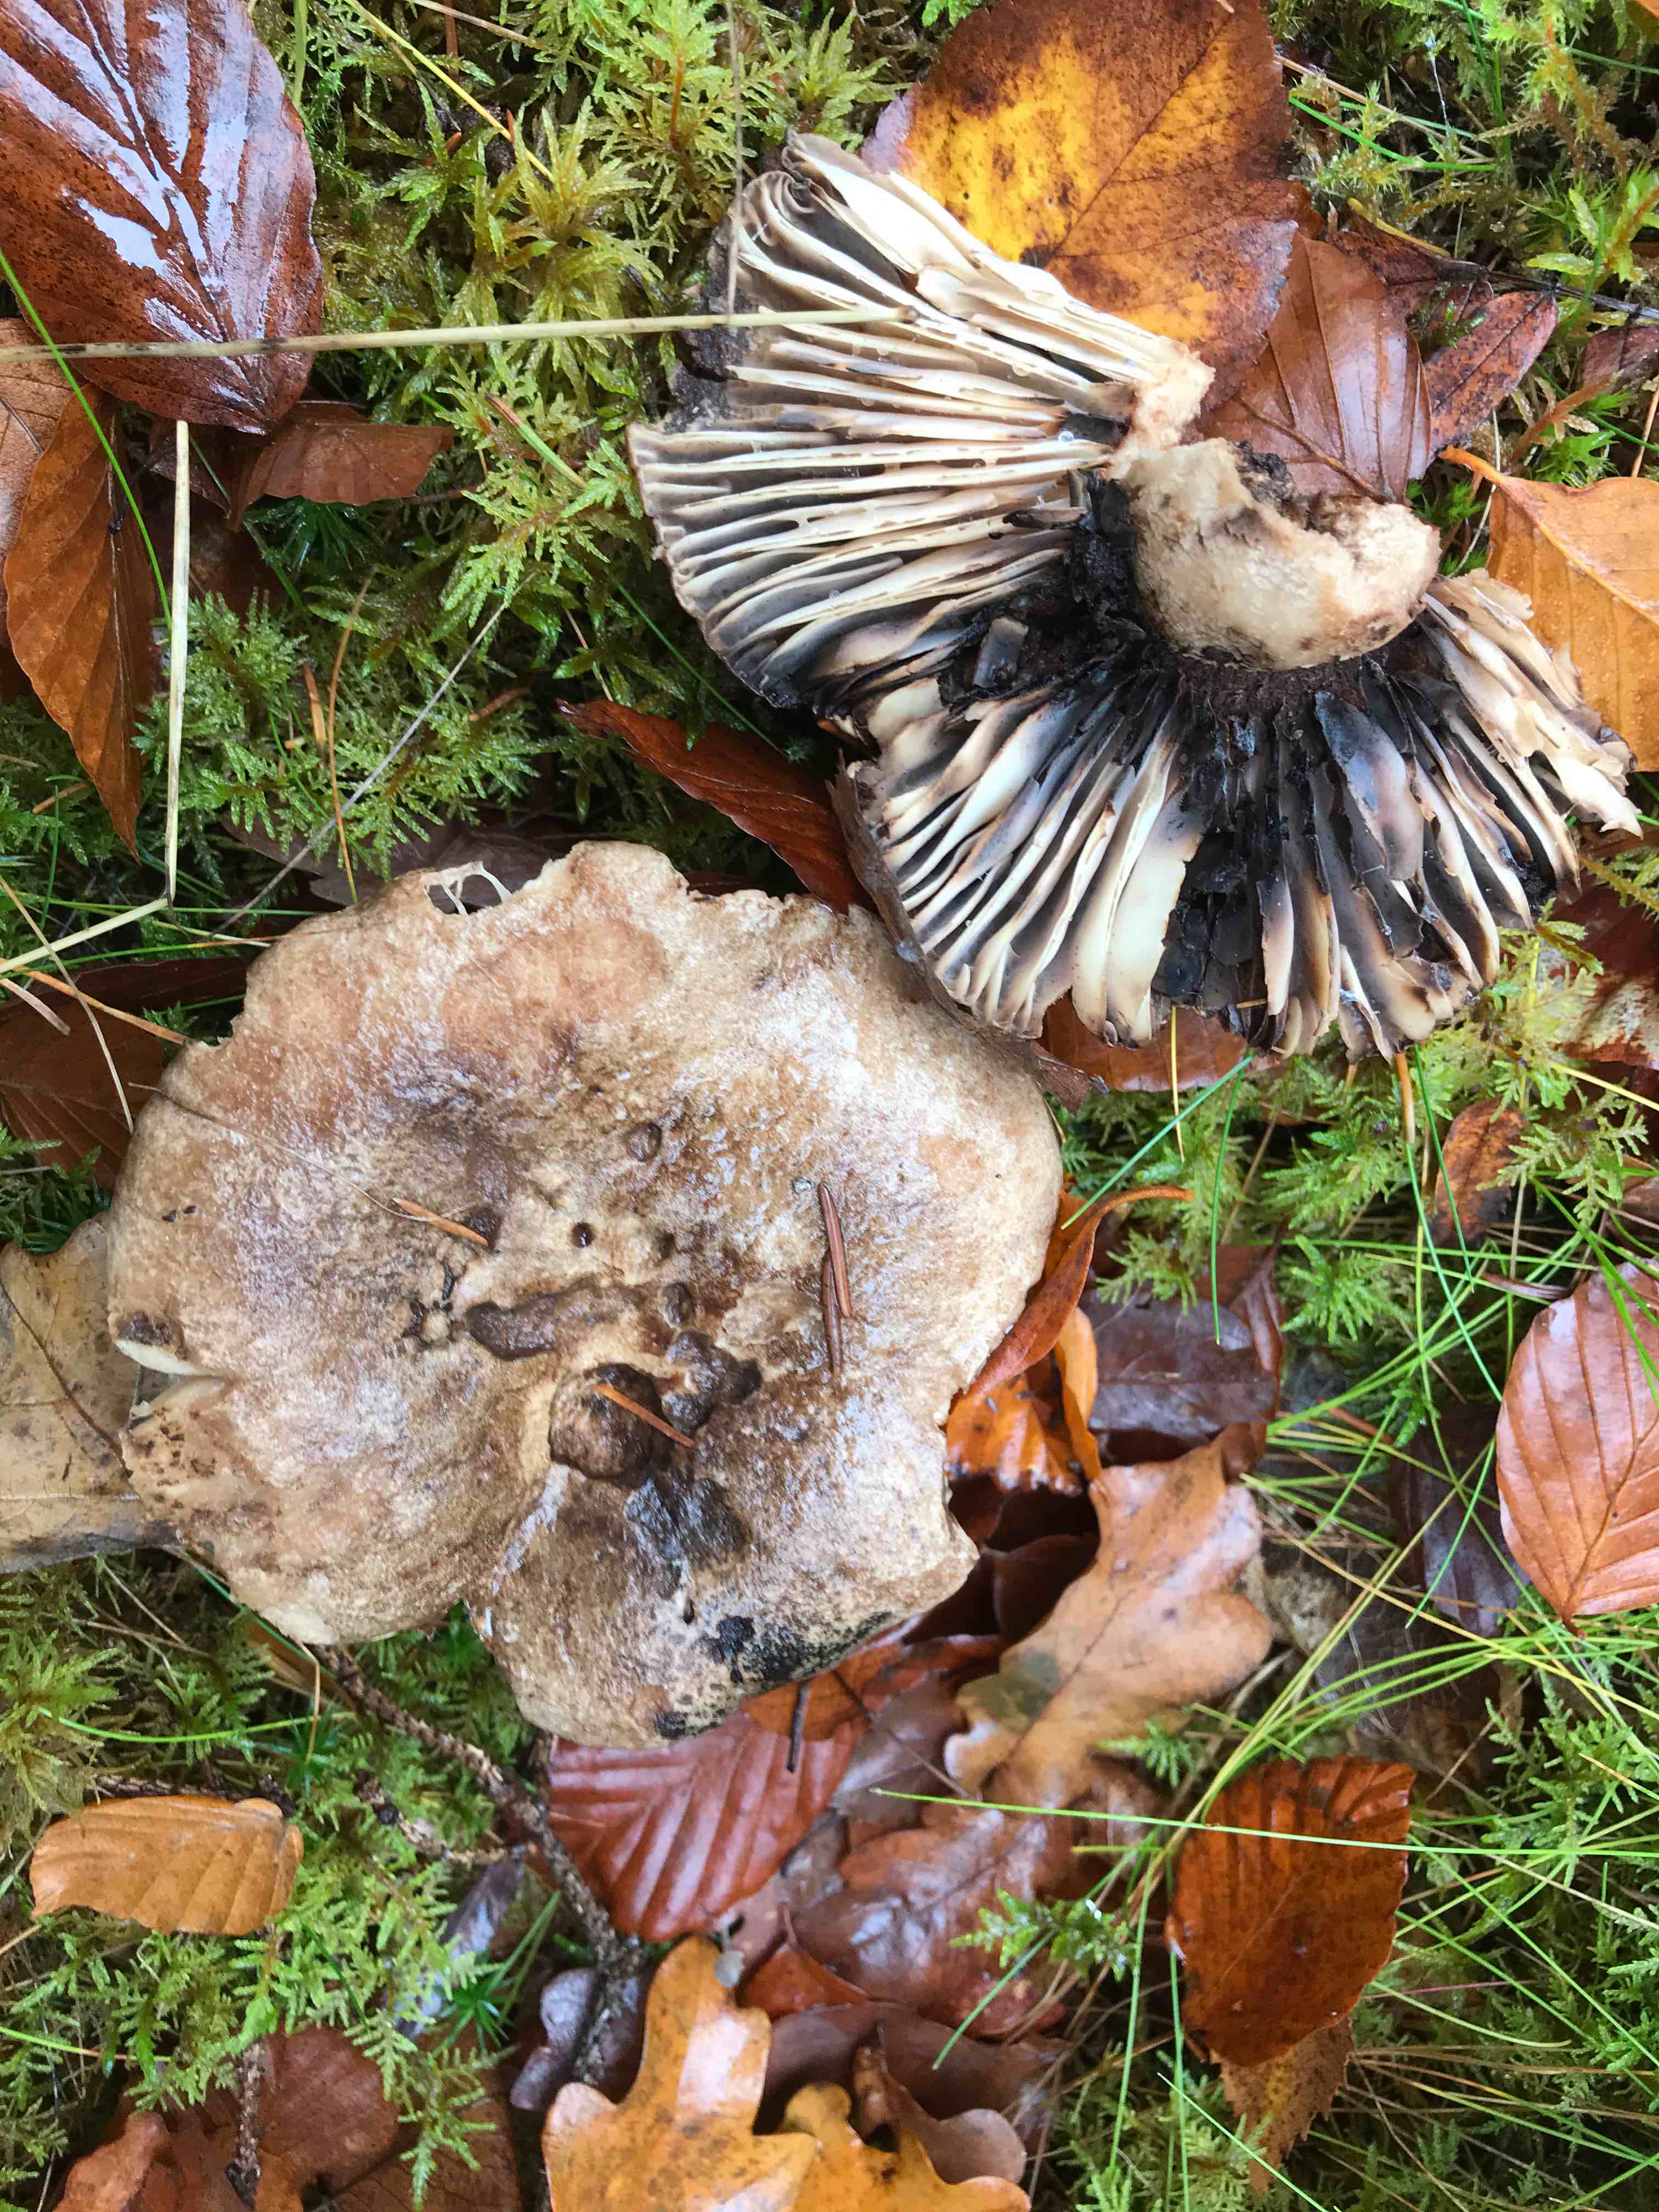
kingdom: Fungi
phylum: Basidiomycota
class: Agaricomycetes
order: Russulales
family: Russulaceae
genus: Russula
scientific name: Russula adusta
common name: sværtende skørhat
